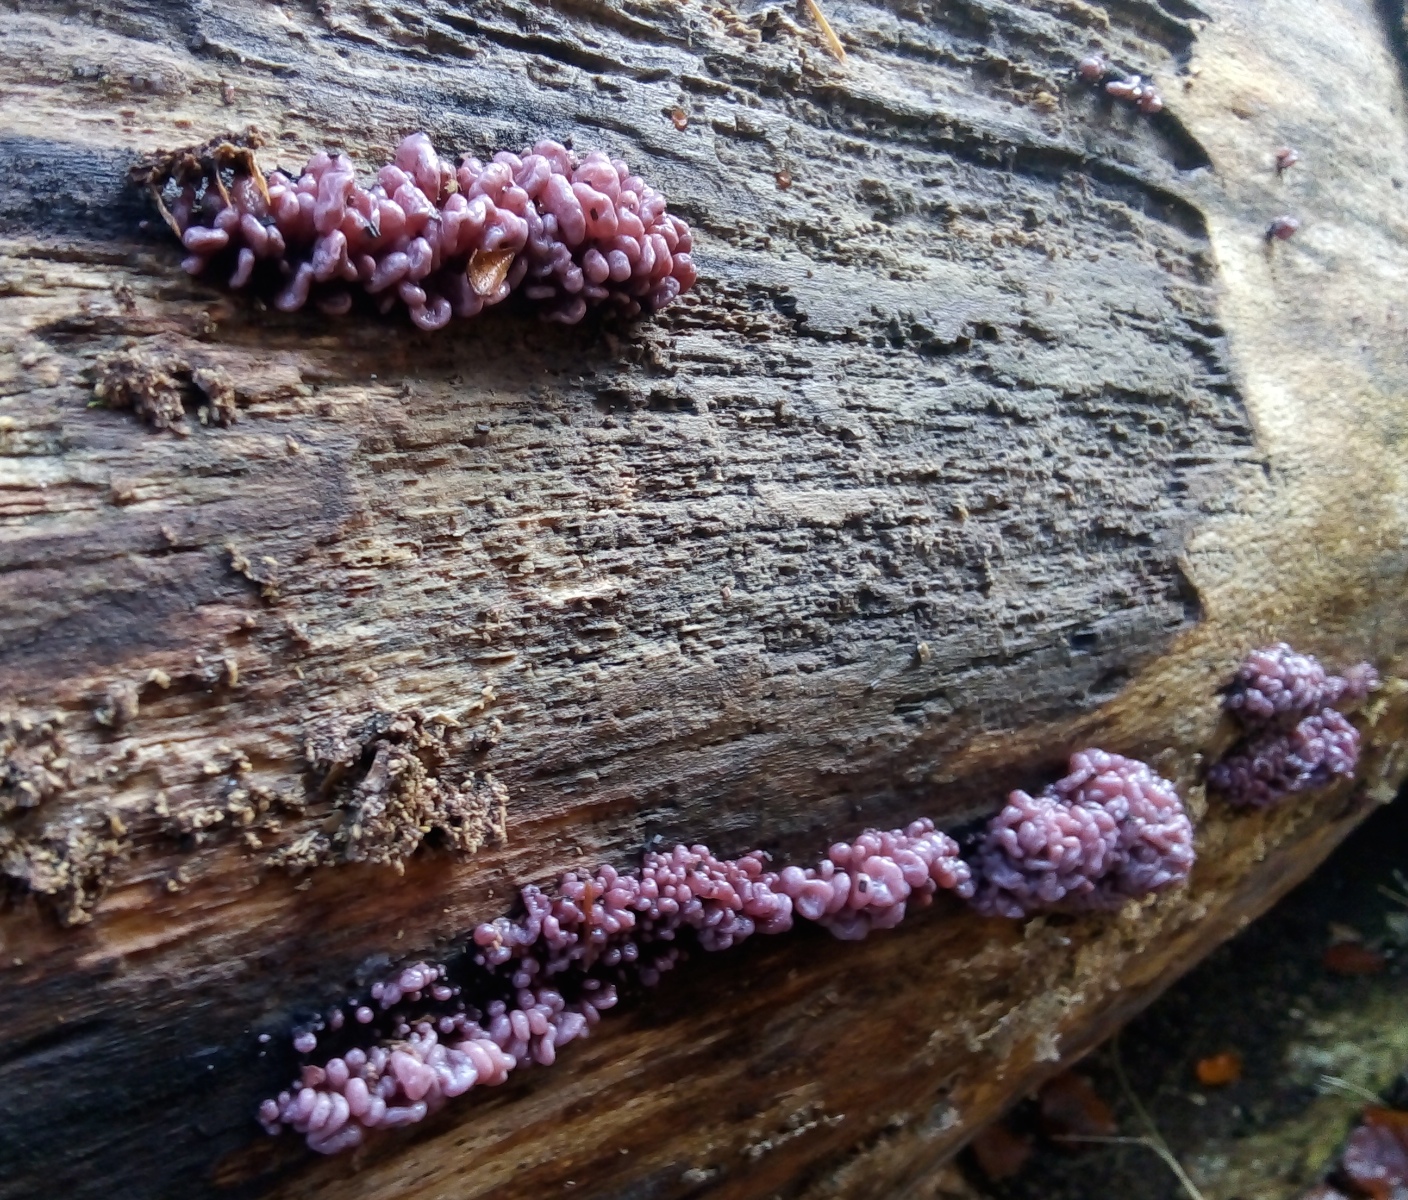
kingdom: Fungi
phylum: Ascomycota
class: Leotiomycetes
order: Helotiales
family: Gelatinodiscaceae
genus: Ascocoryne
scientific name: Ascocoryne sarcoides
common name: rødlilla sejskive
